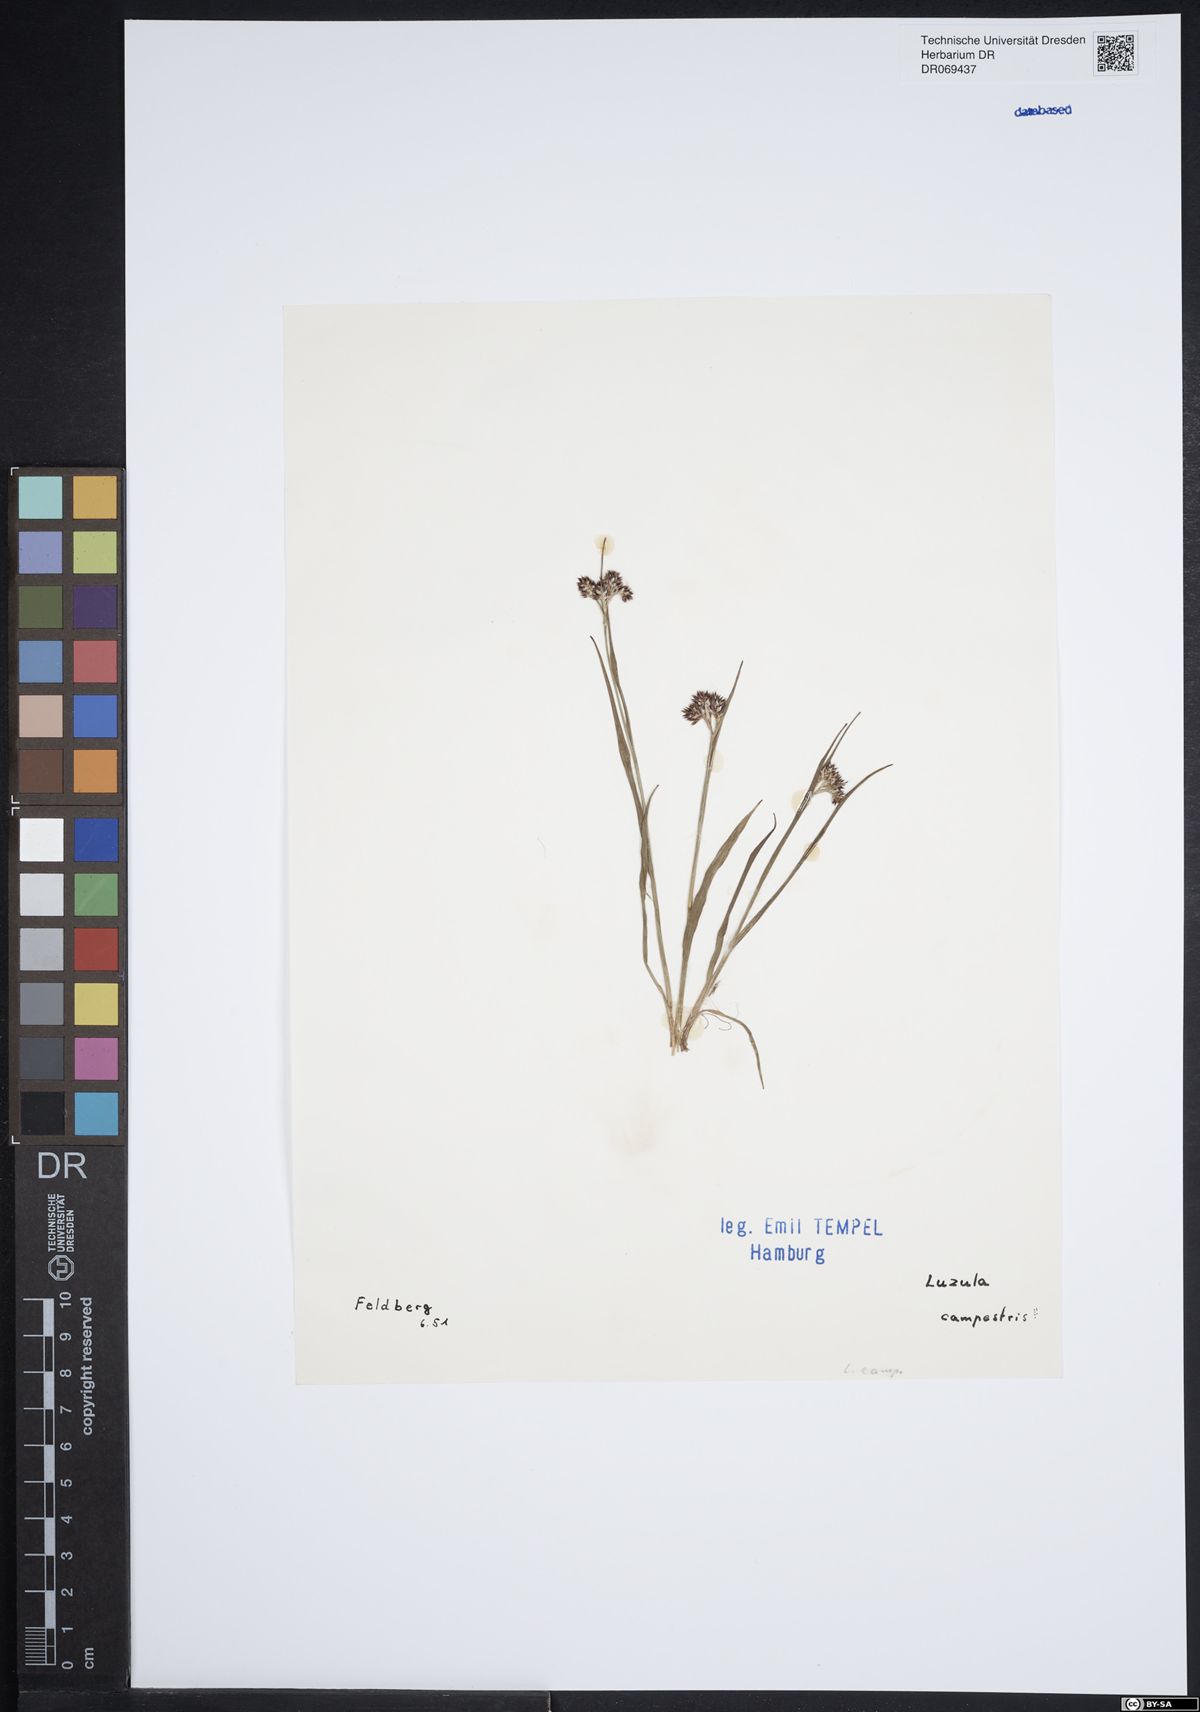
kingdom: Plantae
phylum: Tracheophyta
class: Liliopsida
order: Poales
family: Juncaceae
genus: Luzula
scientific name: Luzula campestris
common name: Field wood-rush
